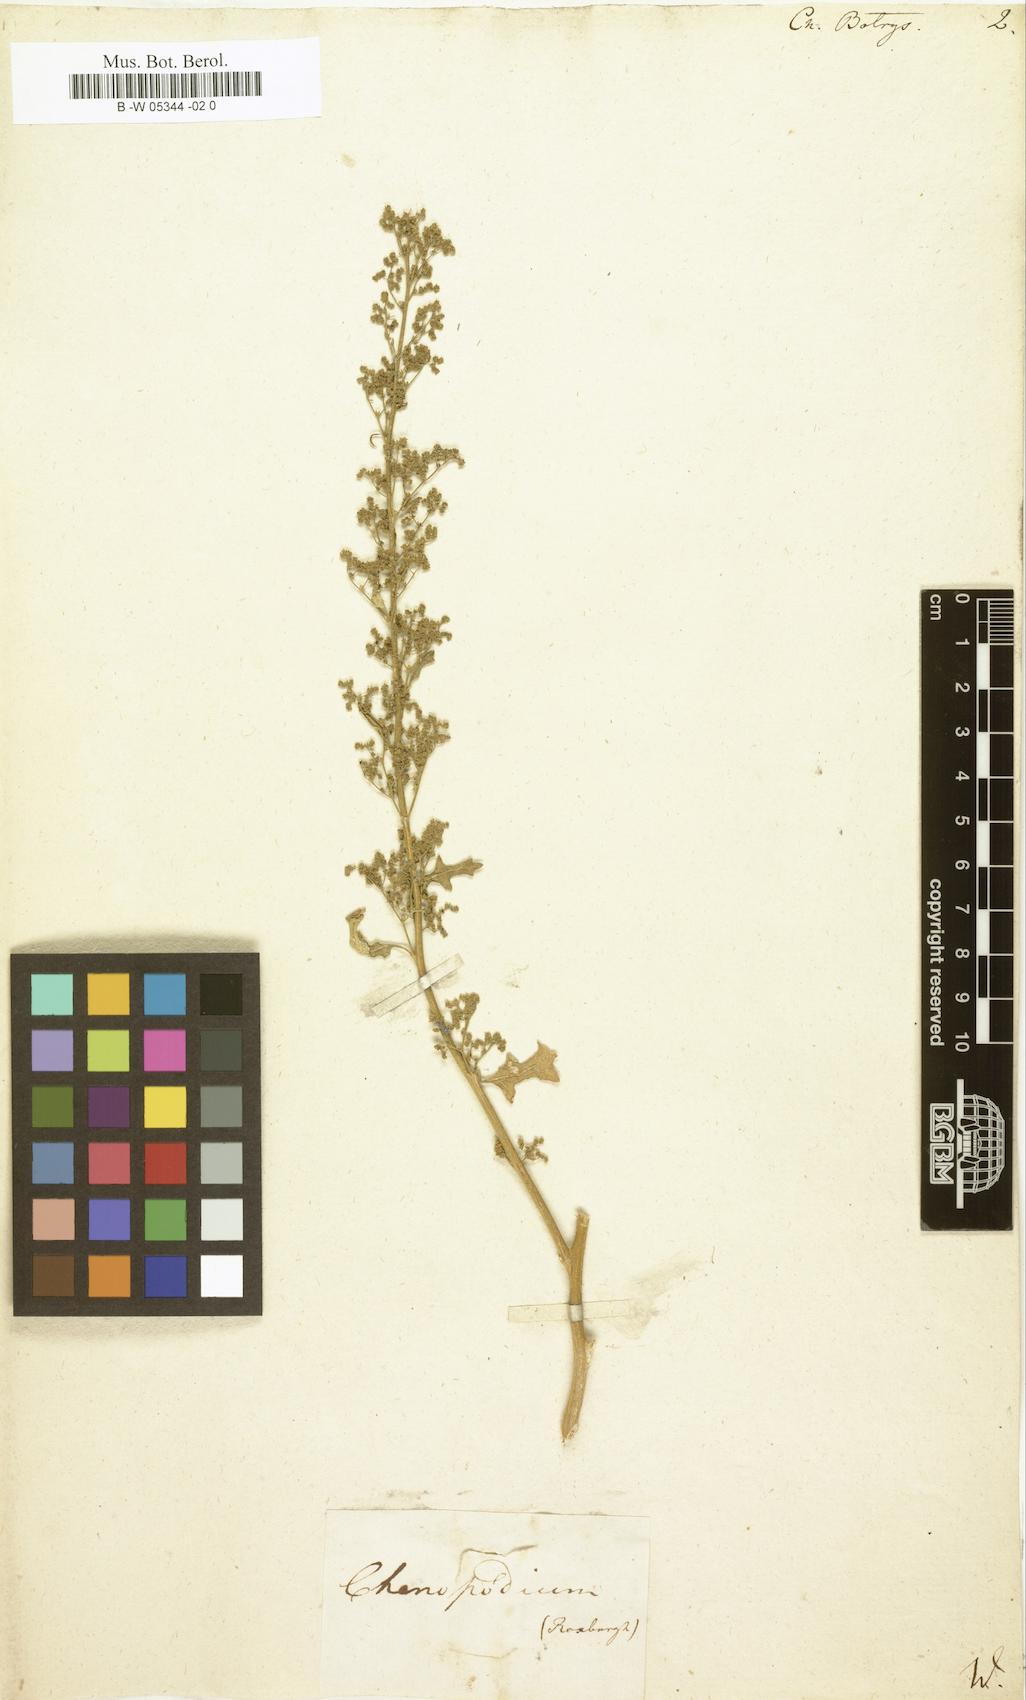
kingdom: Plantae
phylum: Tracheophyta
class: Magnoliopsida
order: Caryophyllales
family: Amaranthaceae
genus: Dysphania
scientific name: Dysphania botrys
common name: Feather-geranium
